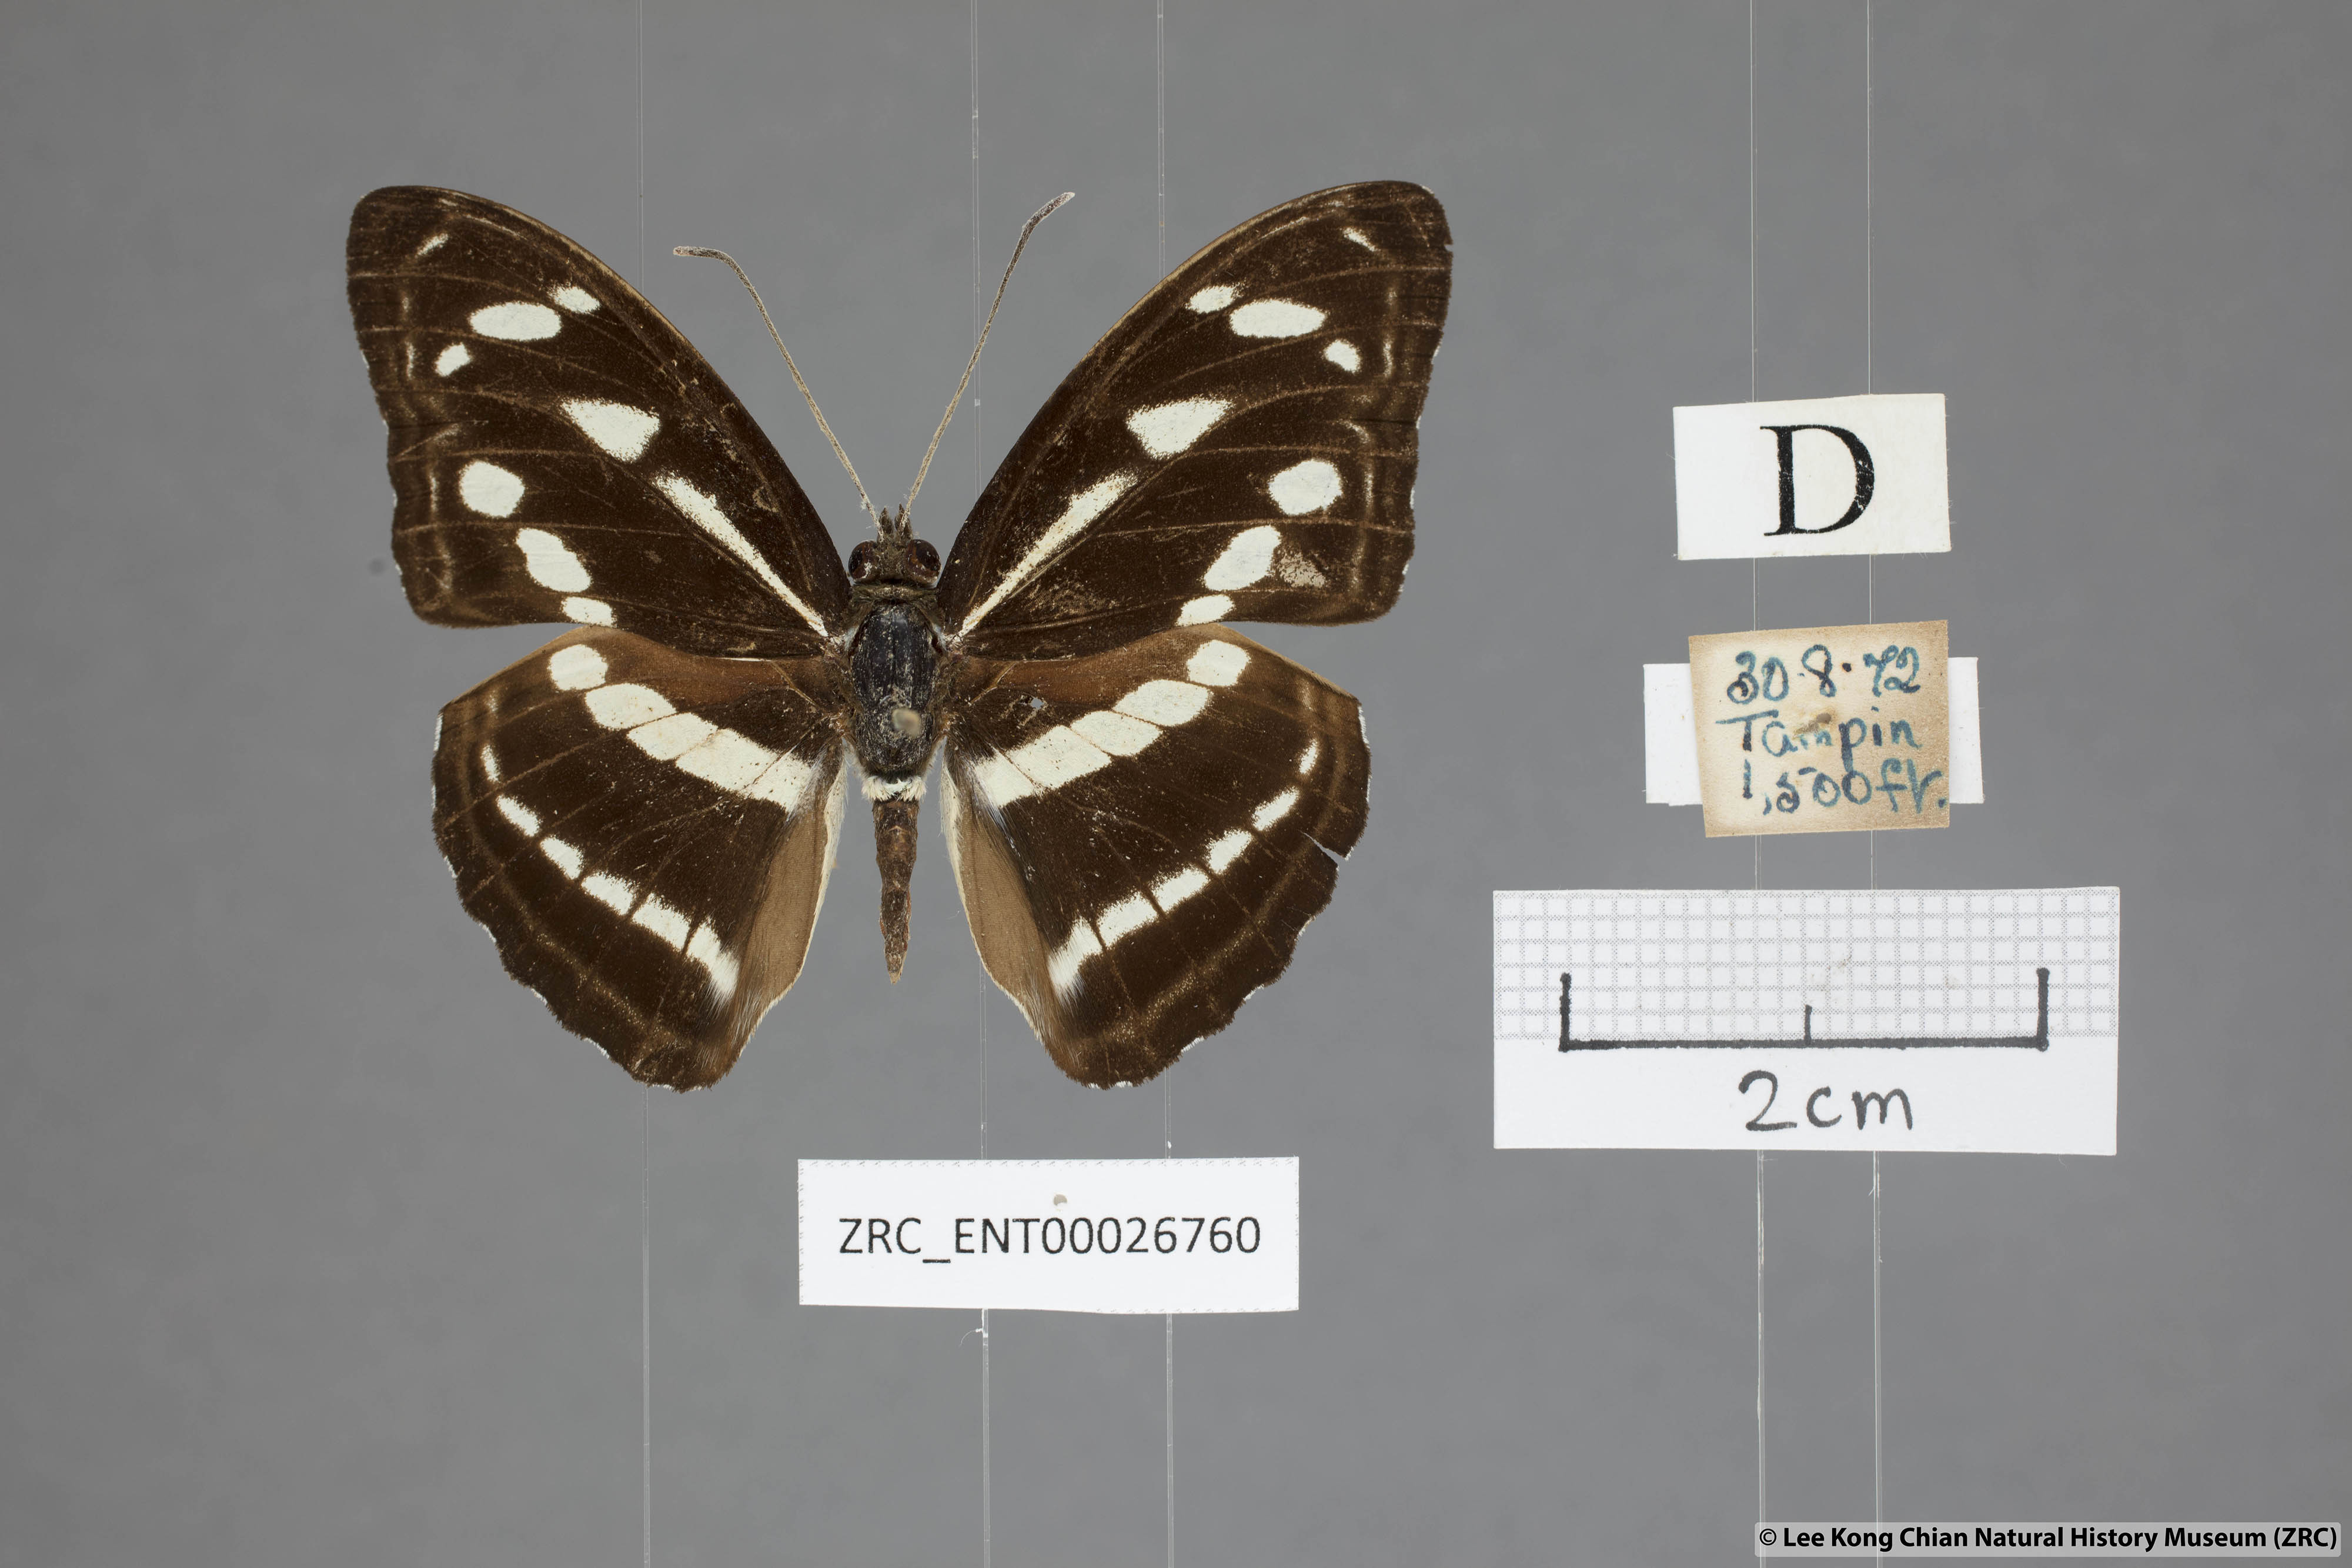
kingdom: Animalia
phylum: Arthropoda
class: Insecta
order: Lepidoptera
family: Nymphalidae
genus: Parathyma
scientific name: Parathyma kanwa
